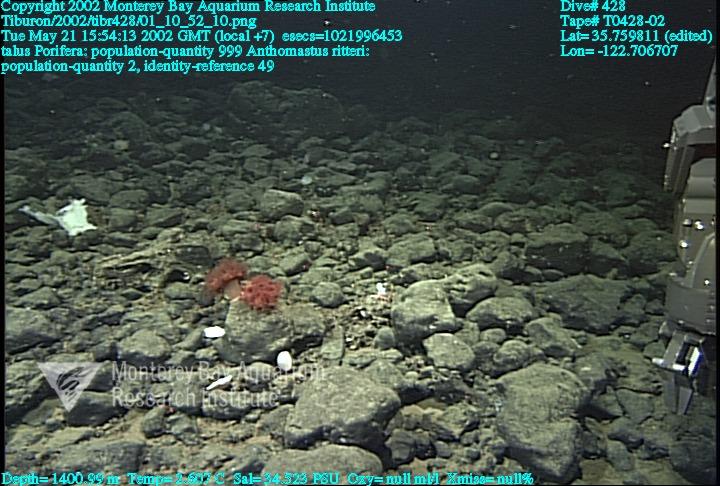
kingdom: Animalia
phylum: Porifera
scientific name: Porifera
